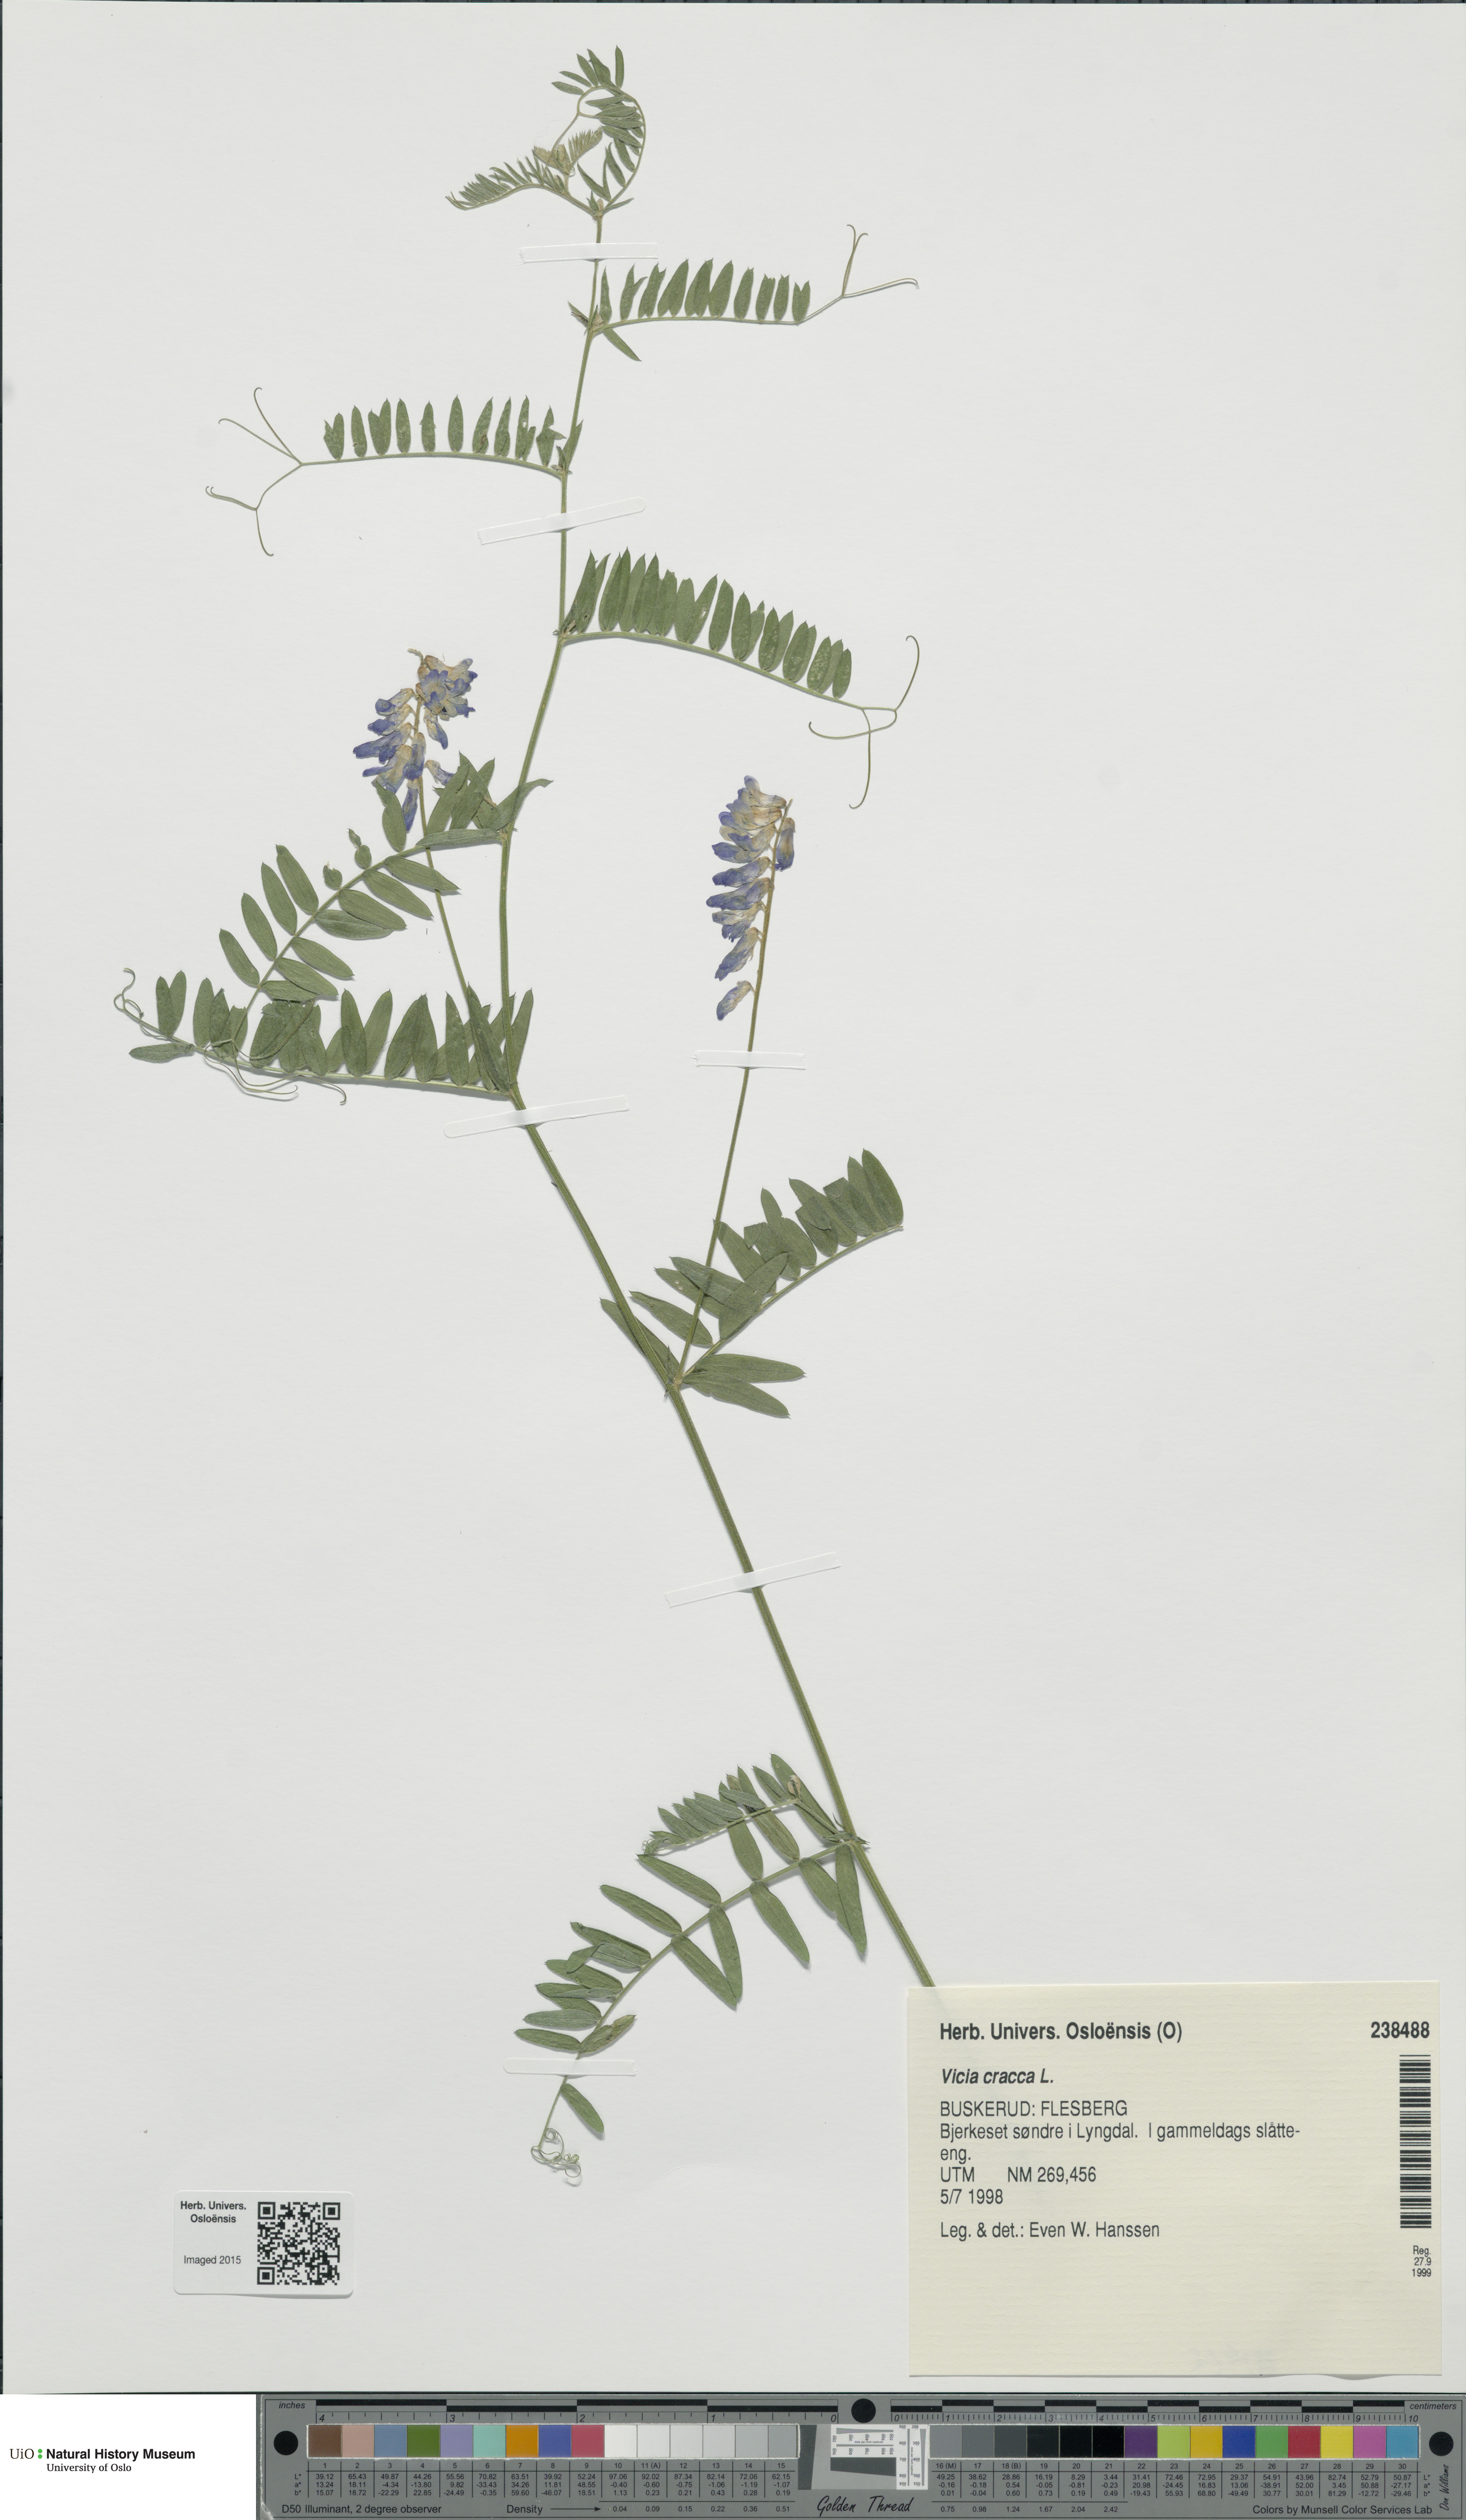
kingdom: Plantae
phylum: Tracheophyta
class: Magnoliopsida
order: Fabales
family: Fabaceae
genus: Vicia
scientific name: Vicia cracca
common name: Bird vetch
